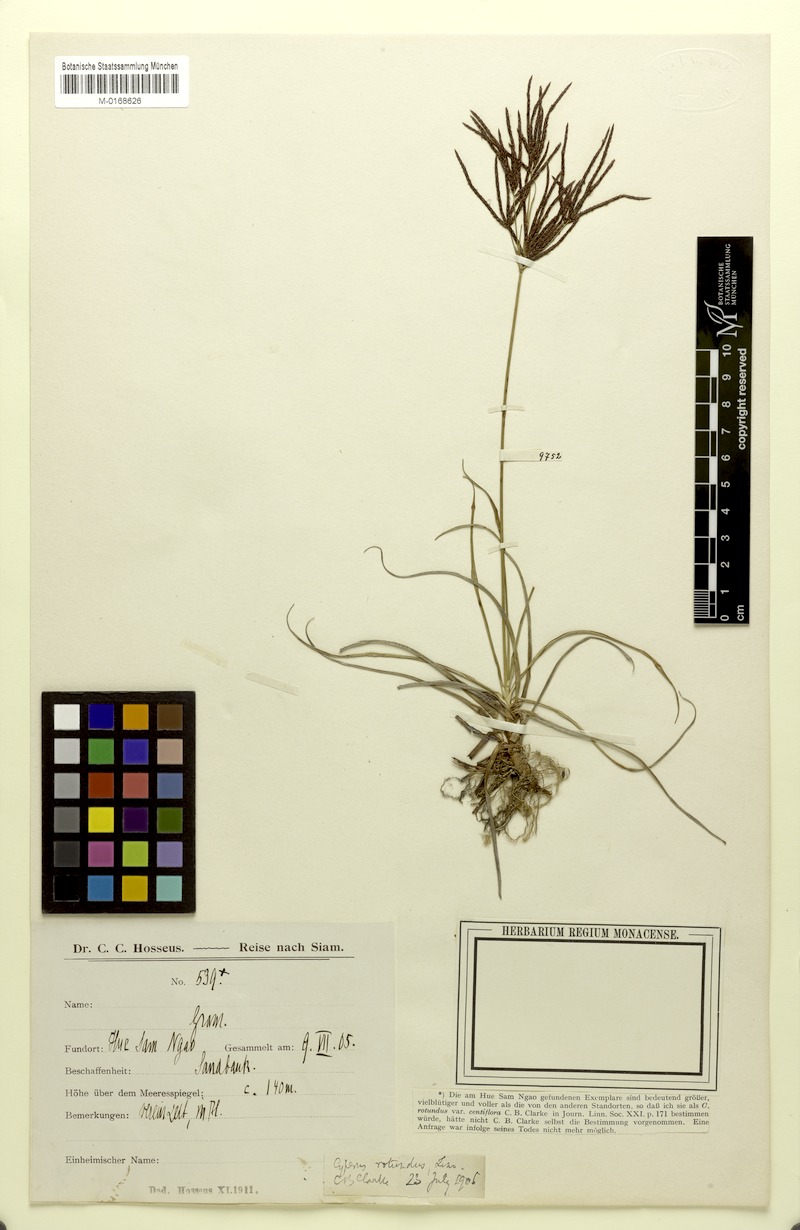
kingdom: Plantae
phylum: Tracheophyta
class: Liliopsida
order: Poales
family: Cyperaceae
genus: Cyperus
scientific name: Cyperus rotundus
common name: Nutgrass
